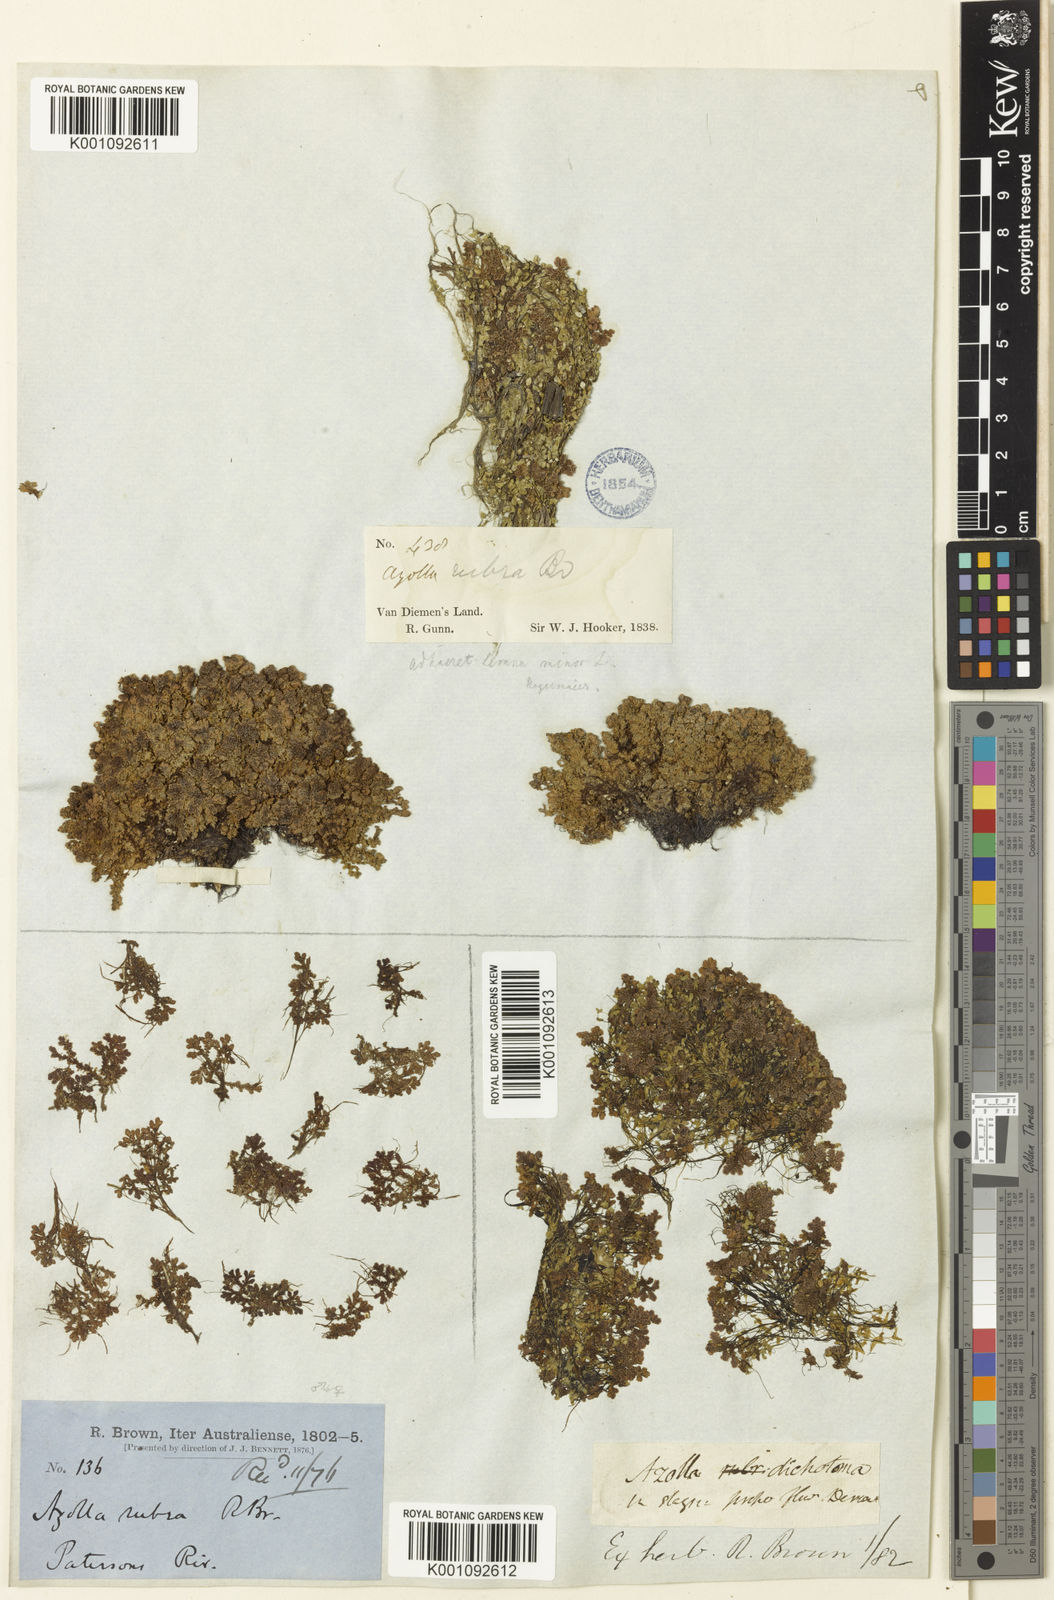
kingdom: Plantae
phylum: Tracheophyta
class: Polypodiopsida
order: Salviniales
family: Salviniaceae
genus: Azolla
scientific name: Azolla rubra
